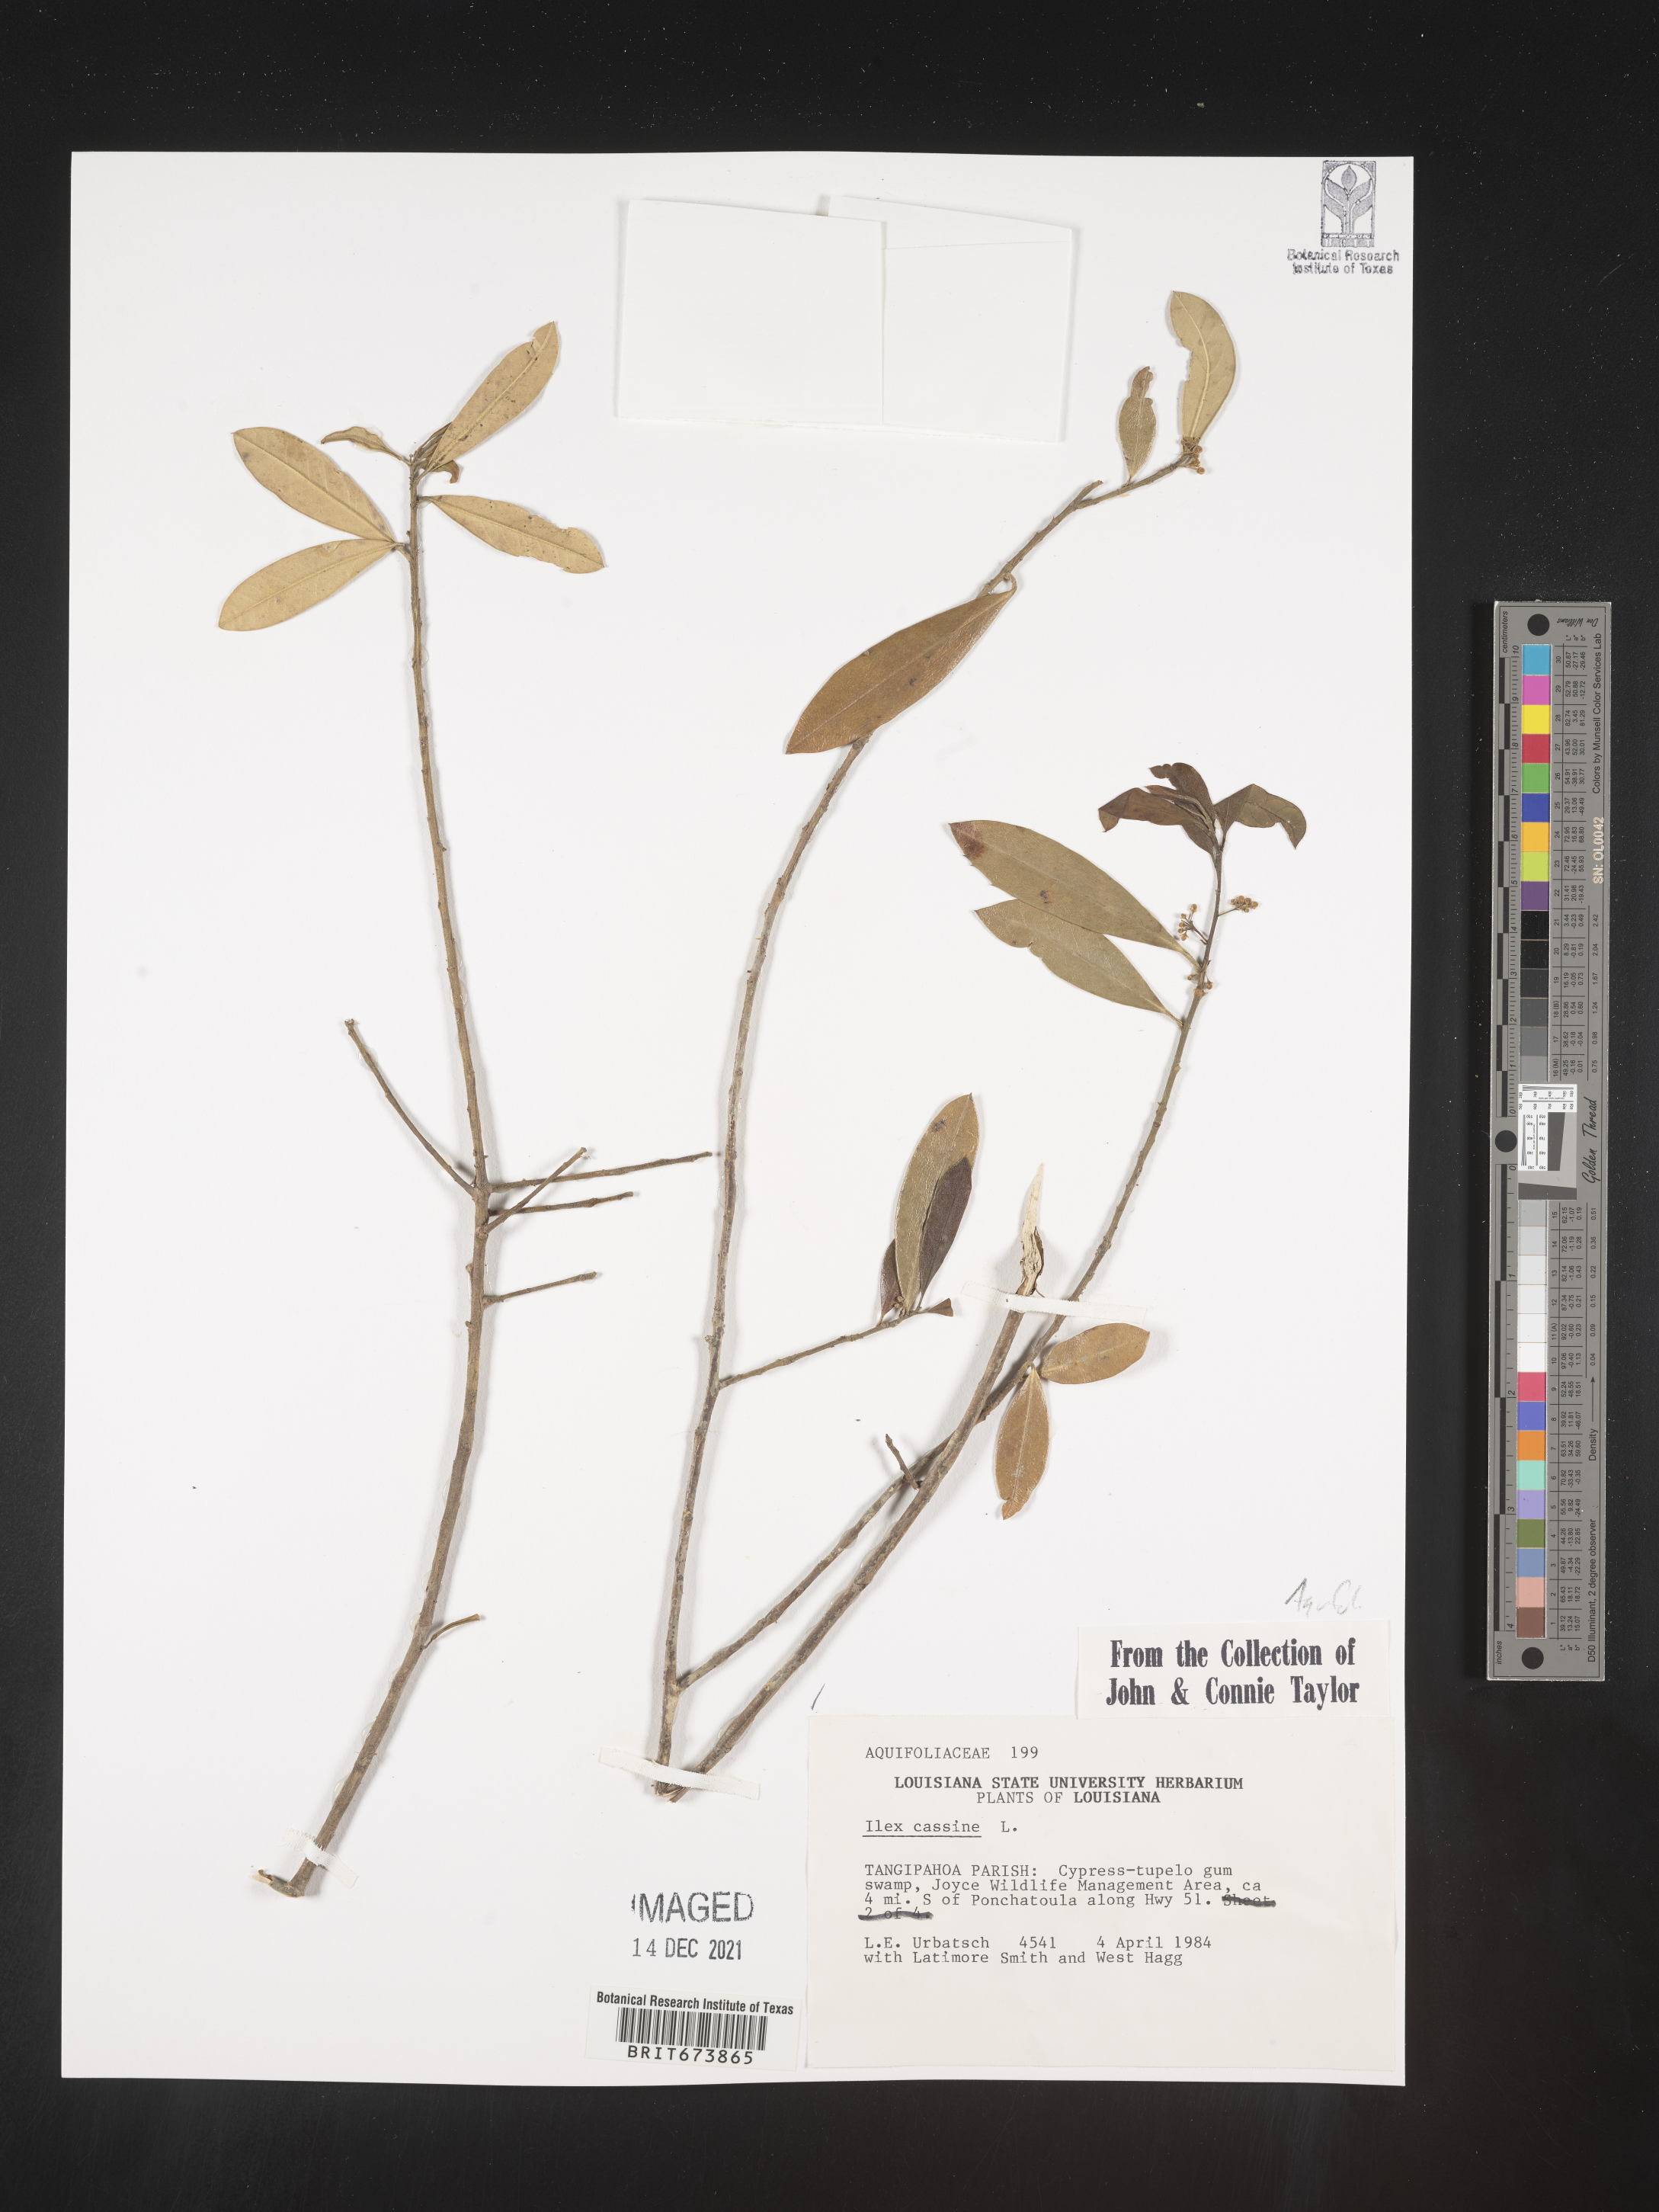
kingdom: Plantae
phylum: Tracheophyta
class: Magnoliopsida
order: Aquifoliales
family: Aquifoliaceae
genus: Ilex
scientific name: Ilex cassine
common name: Dahoon
